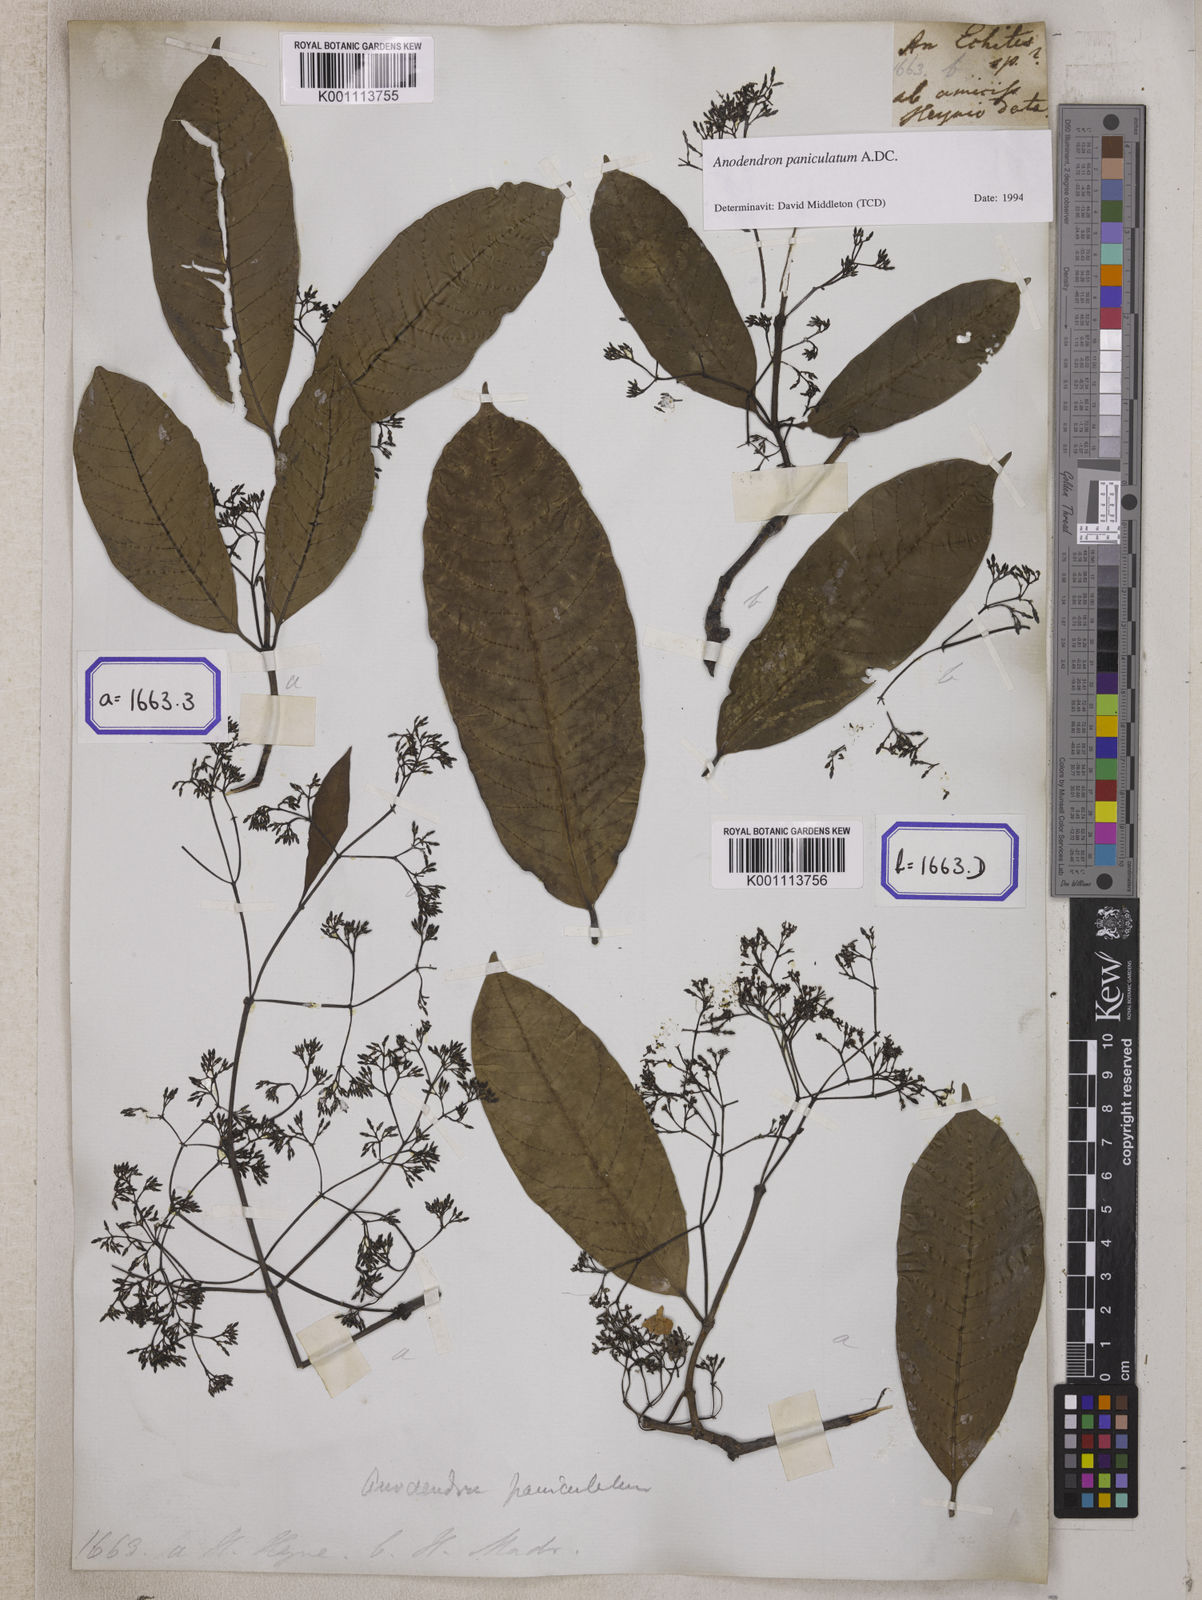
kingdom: Plantae
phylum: Tracheophyta
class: Magnoliopsida
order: Gentianales
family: Apocynaceae
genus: Echites
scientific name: Echites
